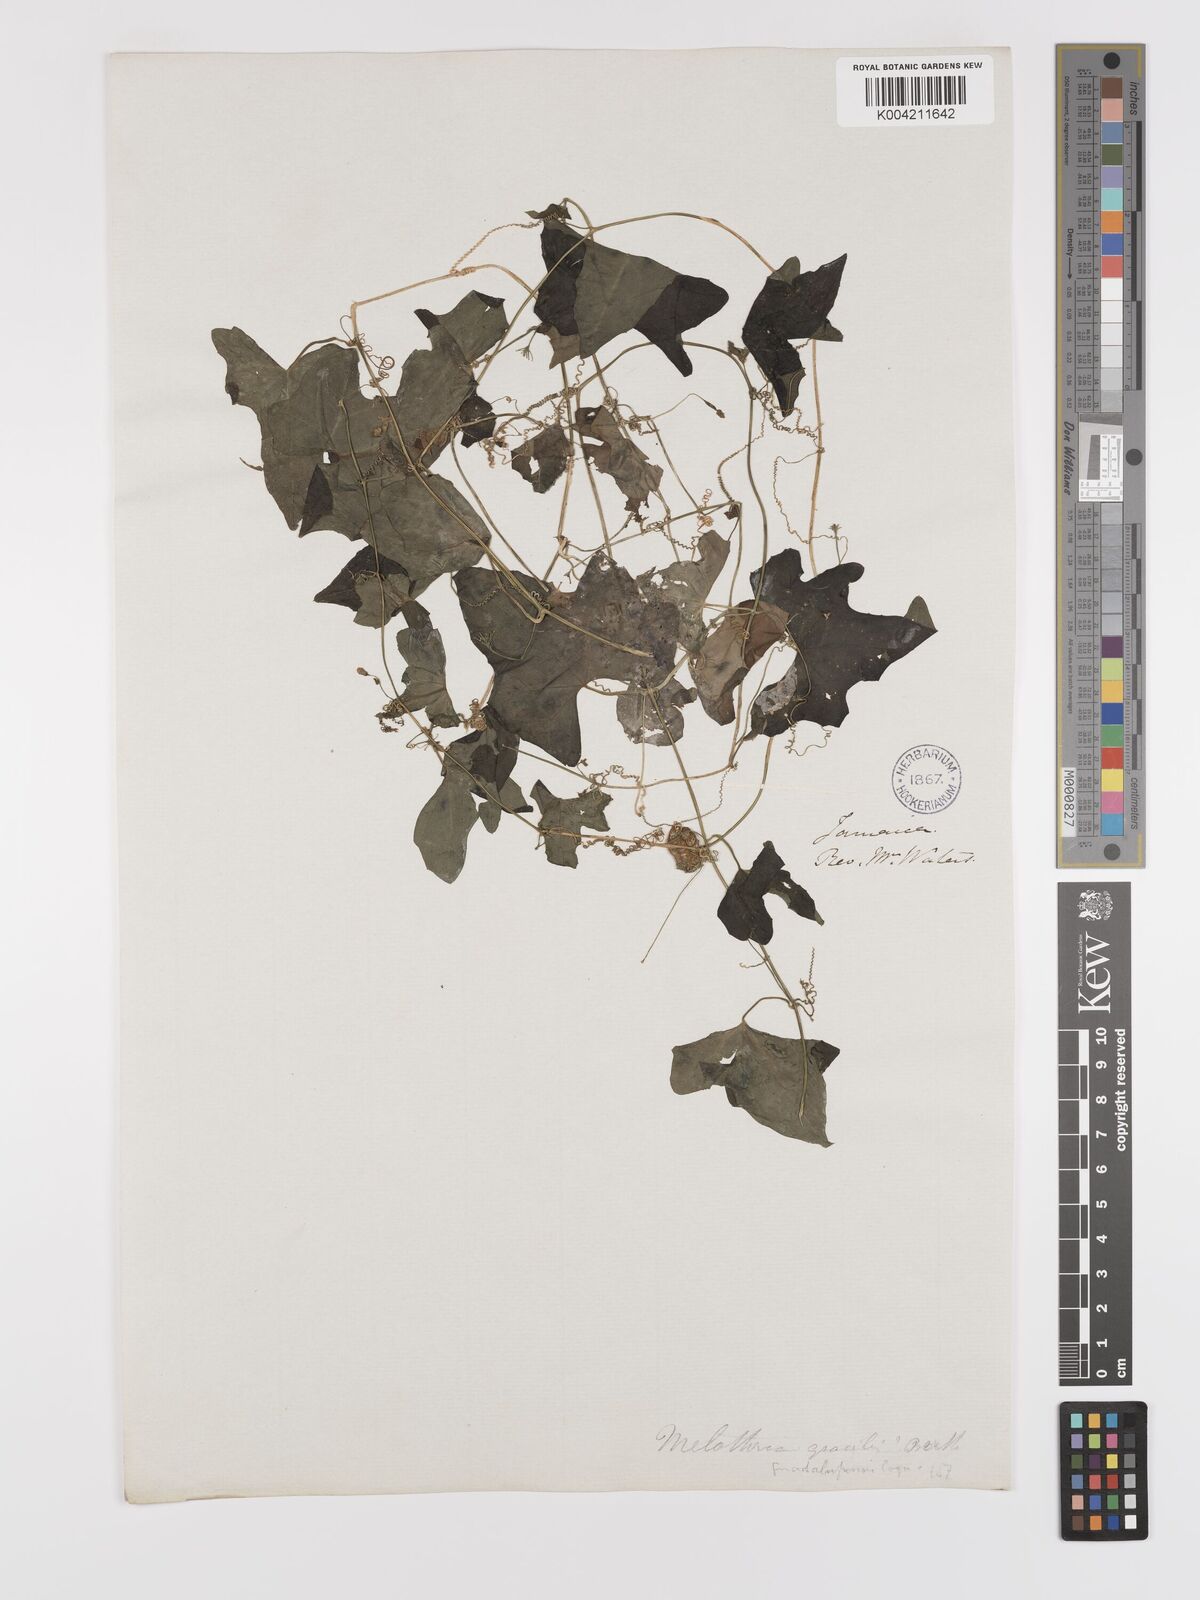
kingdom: Plantae
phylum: Tracheophyta
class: Magnoliopsida
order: Cucurbitales
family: Cucurbitaceae
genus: Melothria
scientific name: Melothria
